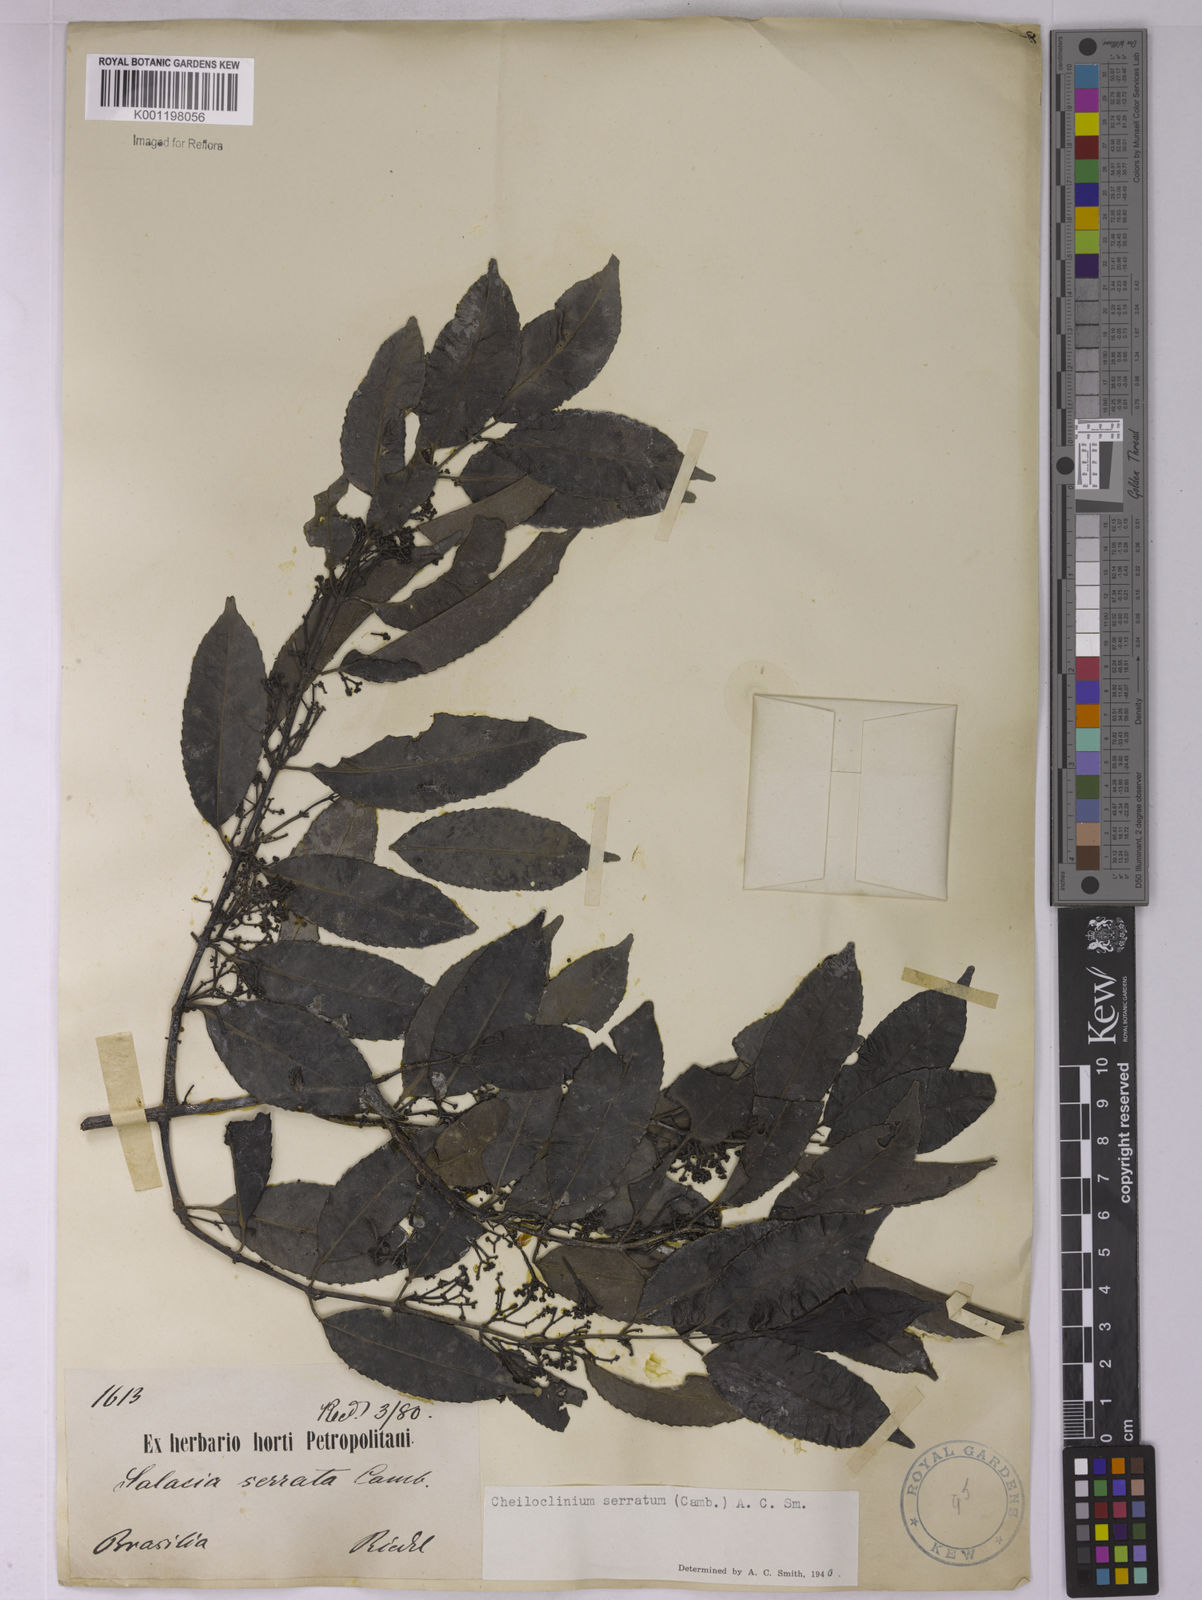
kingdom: Plantae
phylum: Tracheophyta
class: Magnoliopsida
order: Celastrales
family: Celastraceae
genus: Cheiloclinium
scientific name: Cheiloclinium serratum
